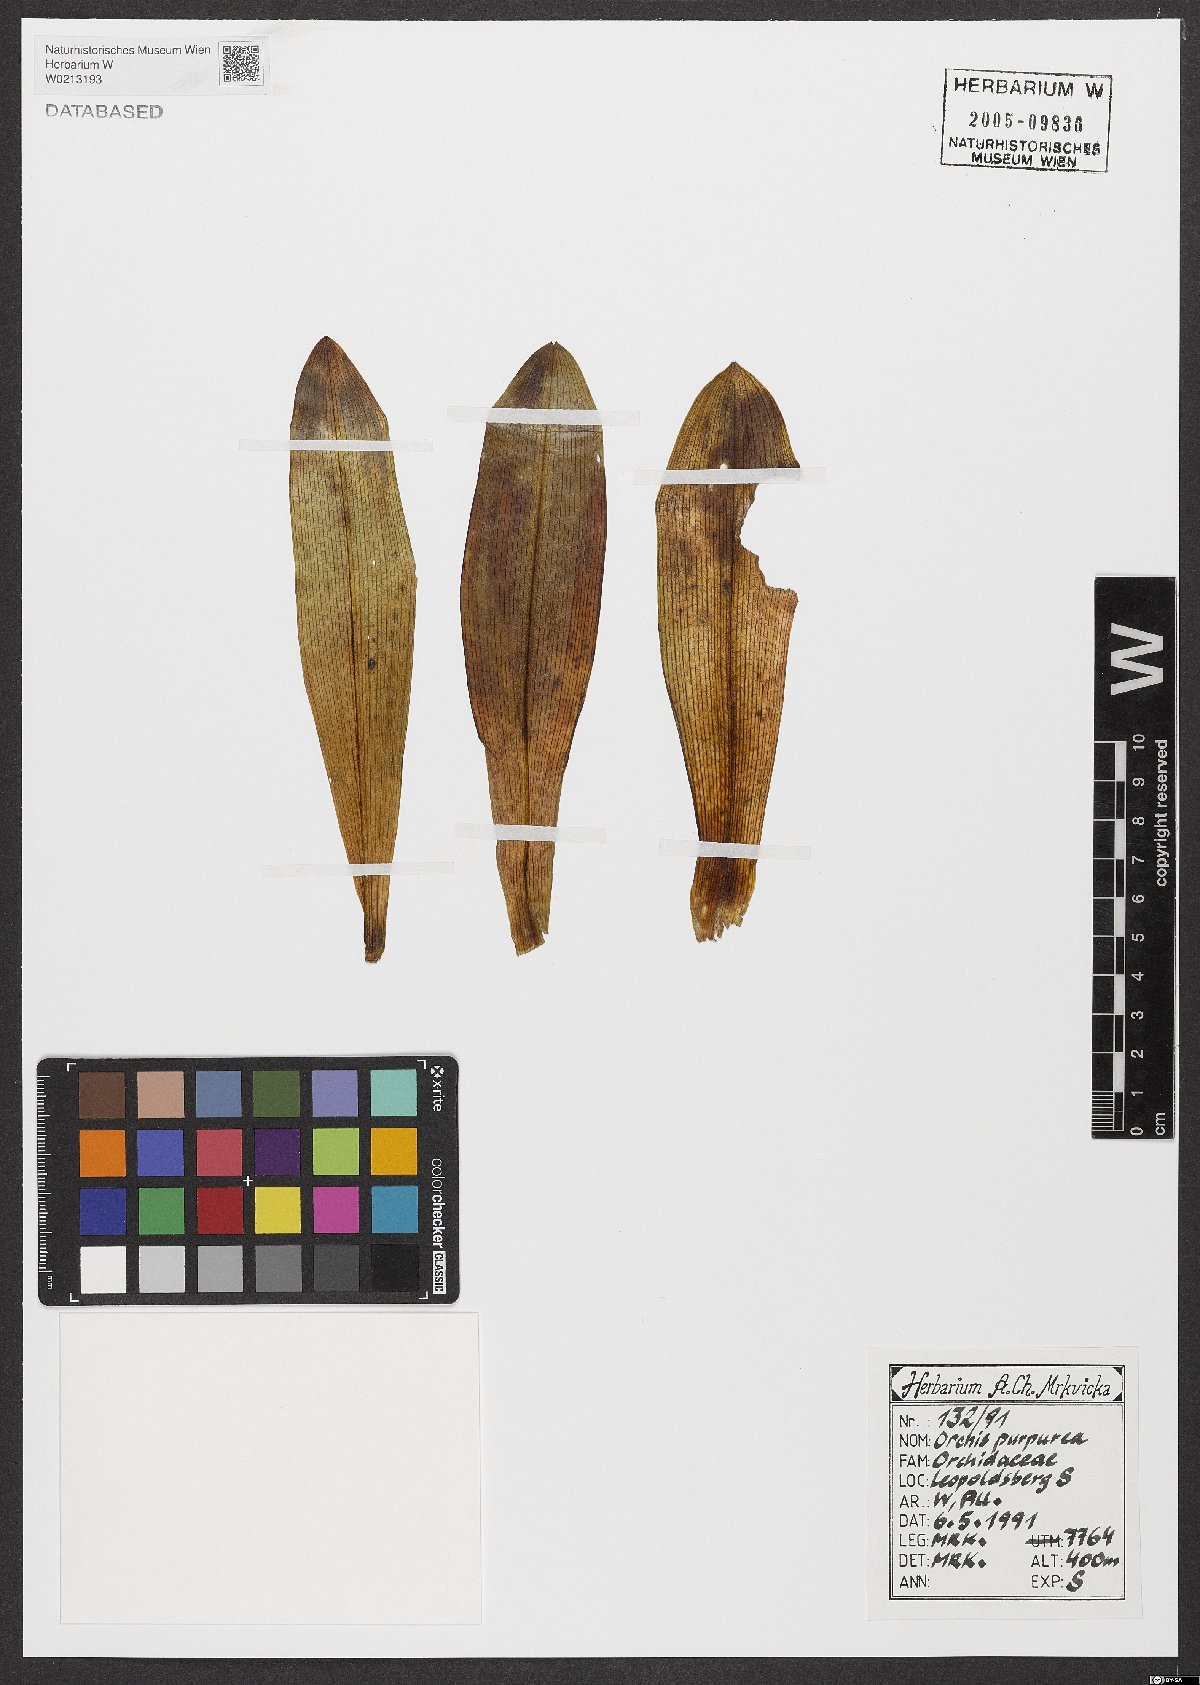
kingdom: Plantae
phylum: Tracheophyta
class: Liliopsida
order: Asparagales
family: Orchidaceae
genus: Orchis
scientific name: Orchis purpurea
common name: Lady orchid
